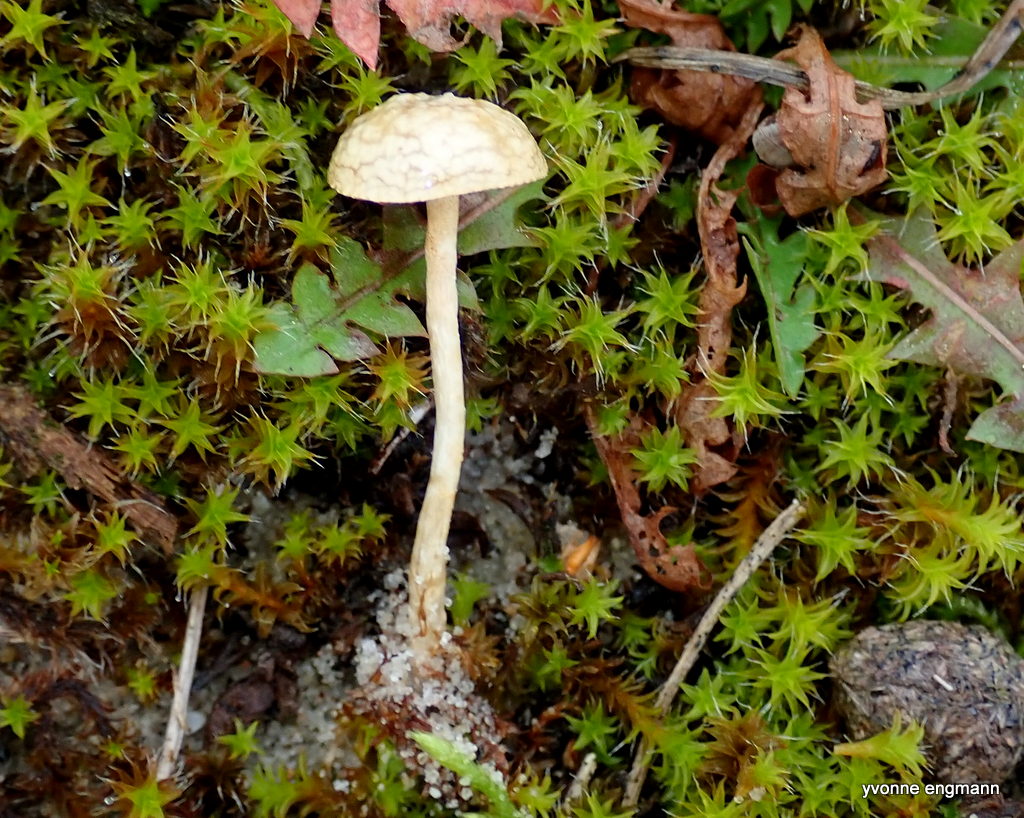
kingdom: Fungi
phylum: Basidiomycota
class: Agaricomycetes
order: Agaricales
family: Strophariaceae
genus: Agrocybe
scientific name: Agrocybe
